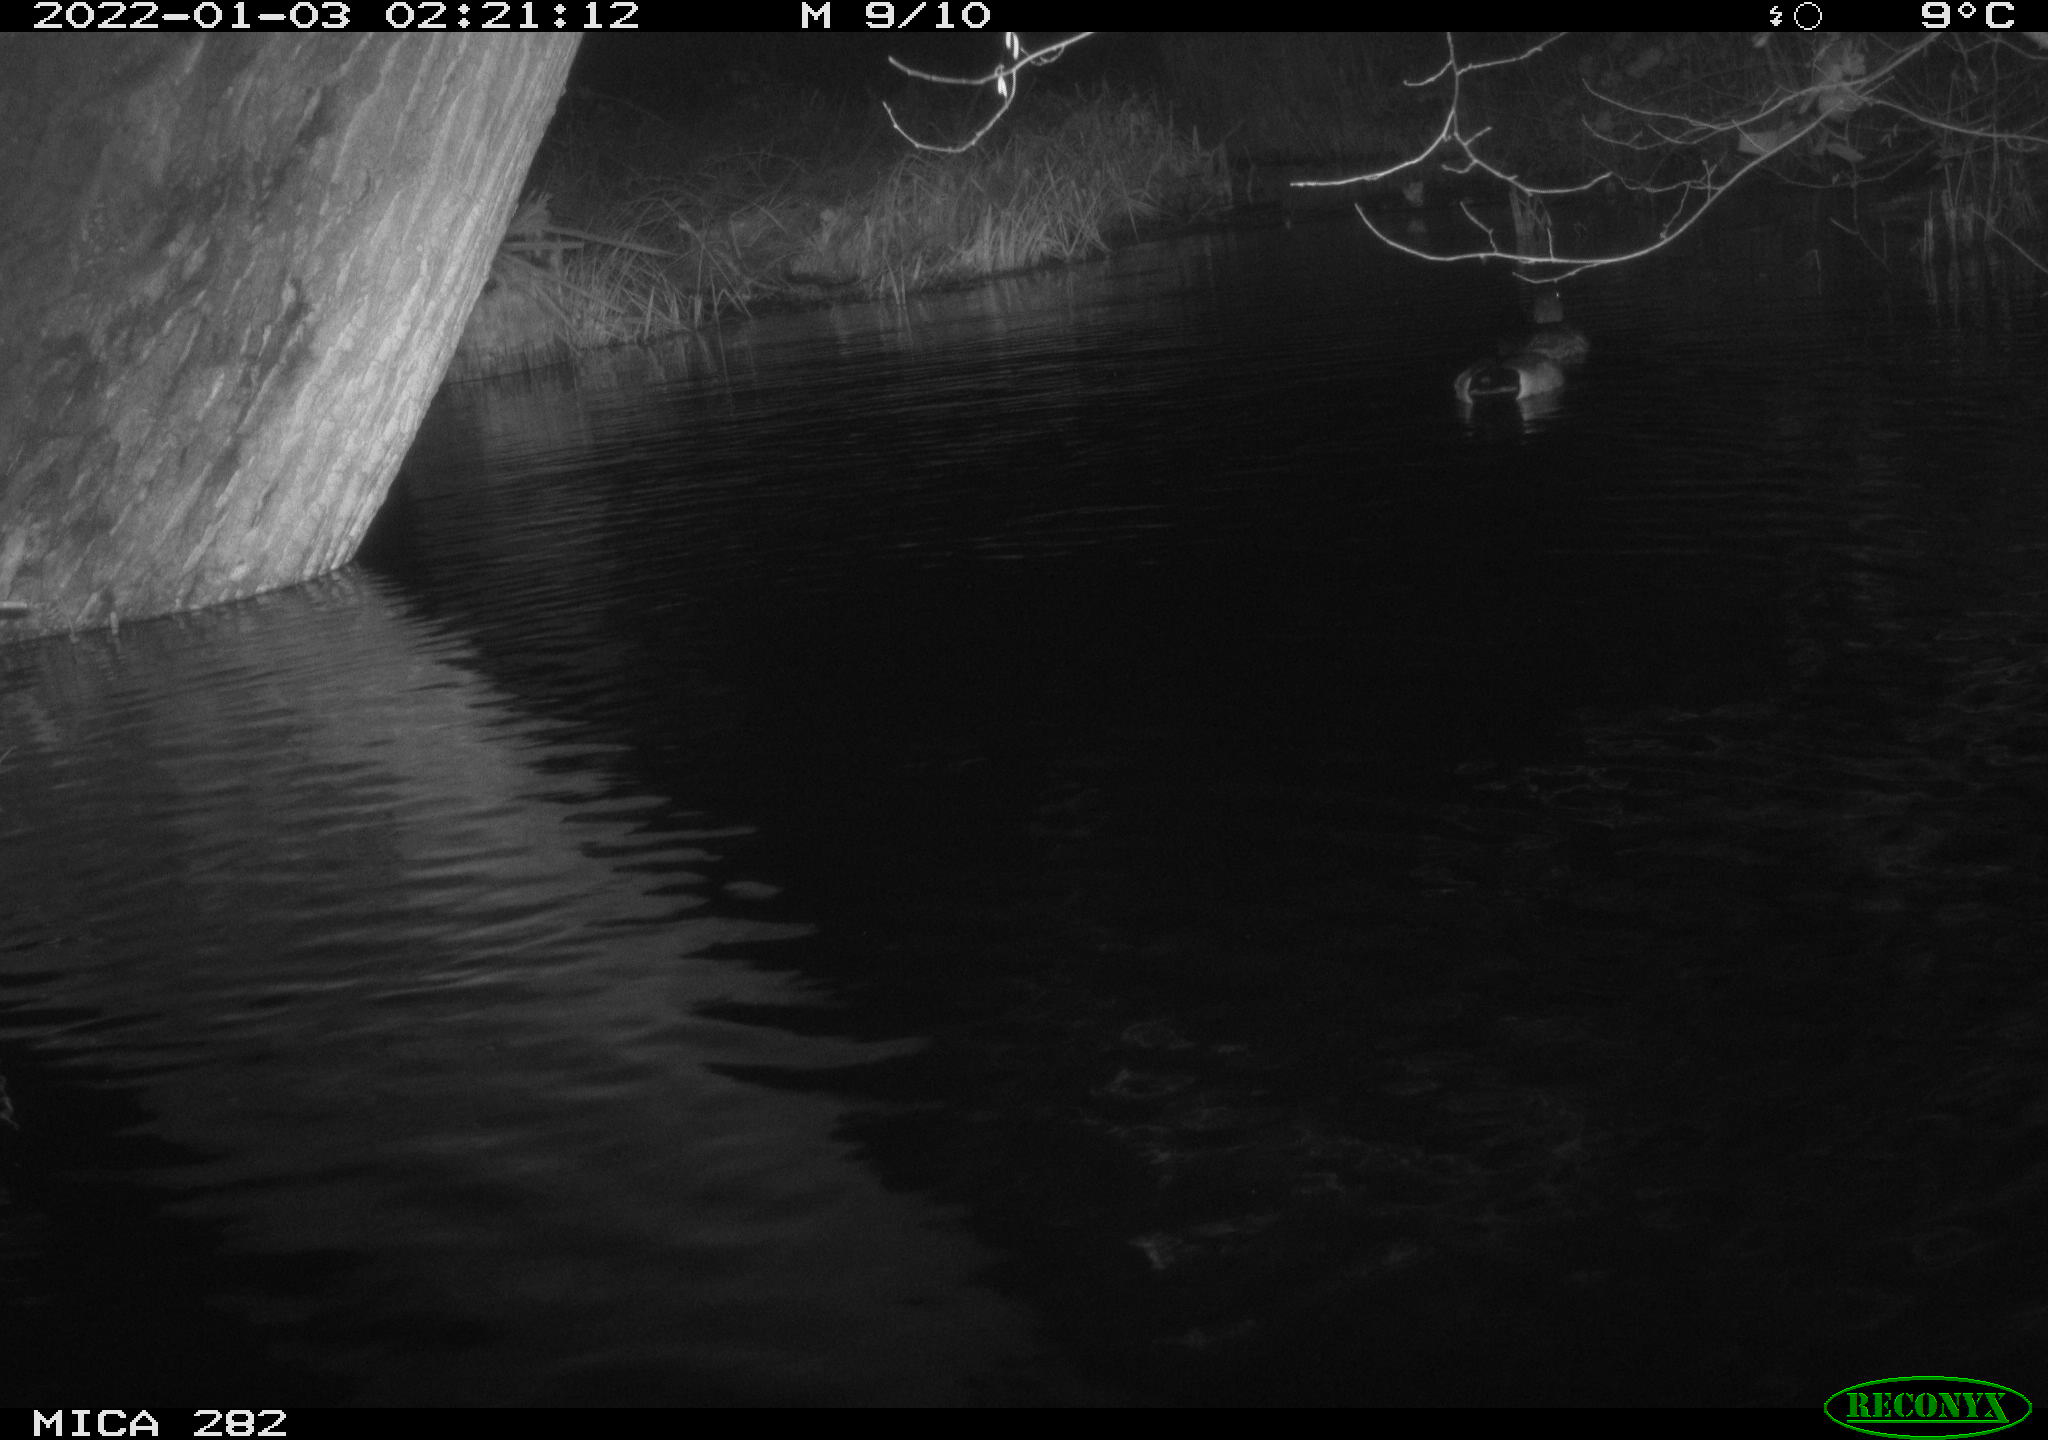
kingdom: Animalia
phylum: Chordata
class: Aves
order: Anseriformes
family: Anatidae
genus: Anas
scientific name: Anas platyrhynchos
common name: Mallard
